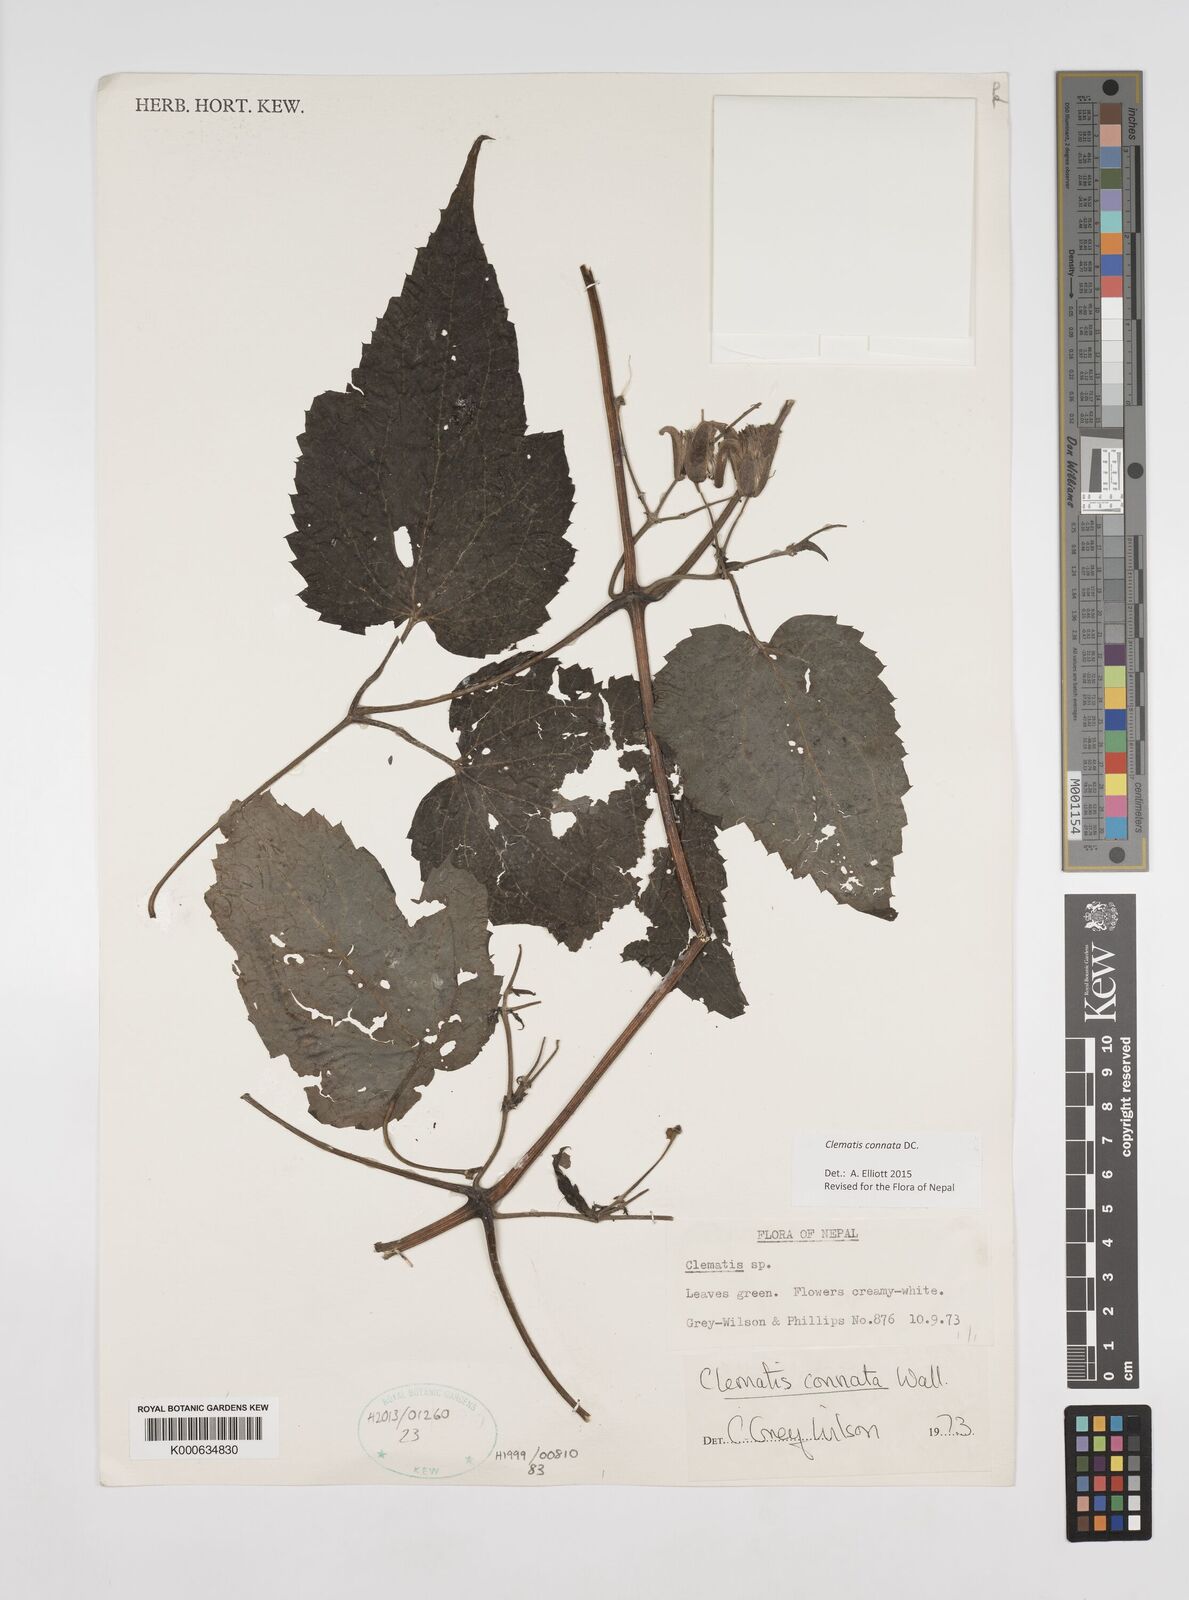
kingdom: Plantae
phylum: Tracheophyta
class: Magnoliopsida
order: Ranunculales
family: Ranunculaceae
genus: Clematis
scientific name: Clematis connata
